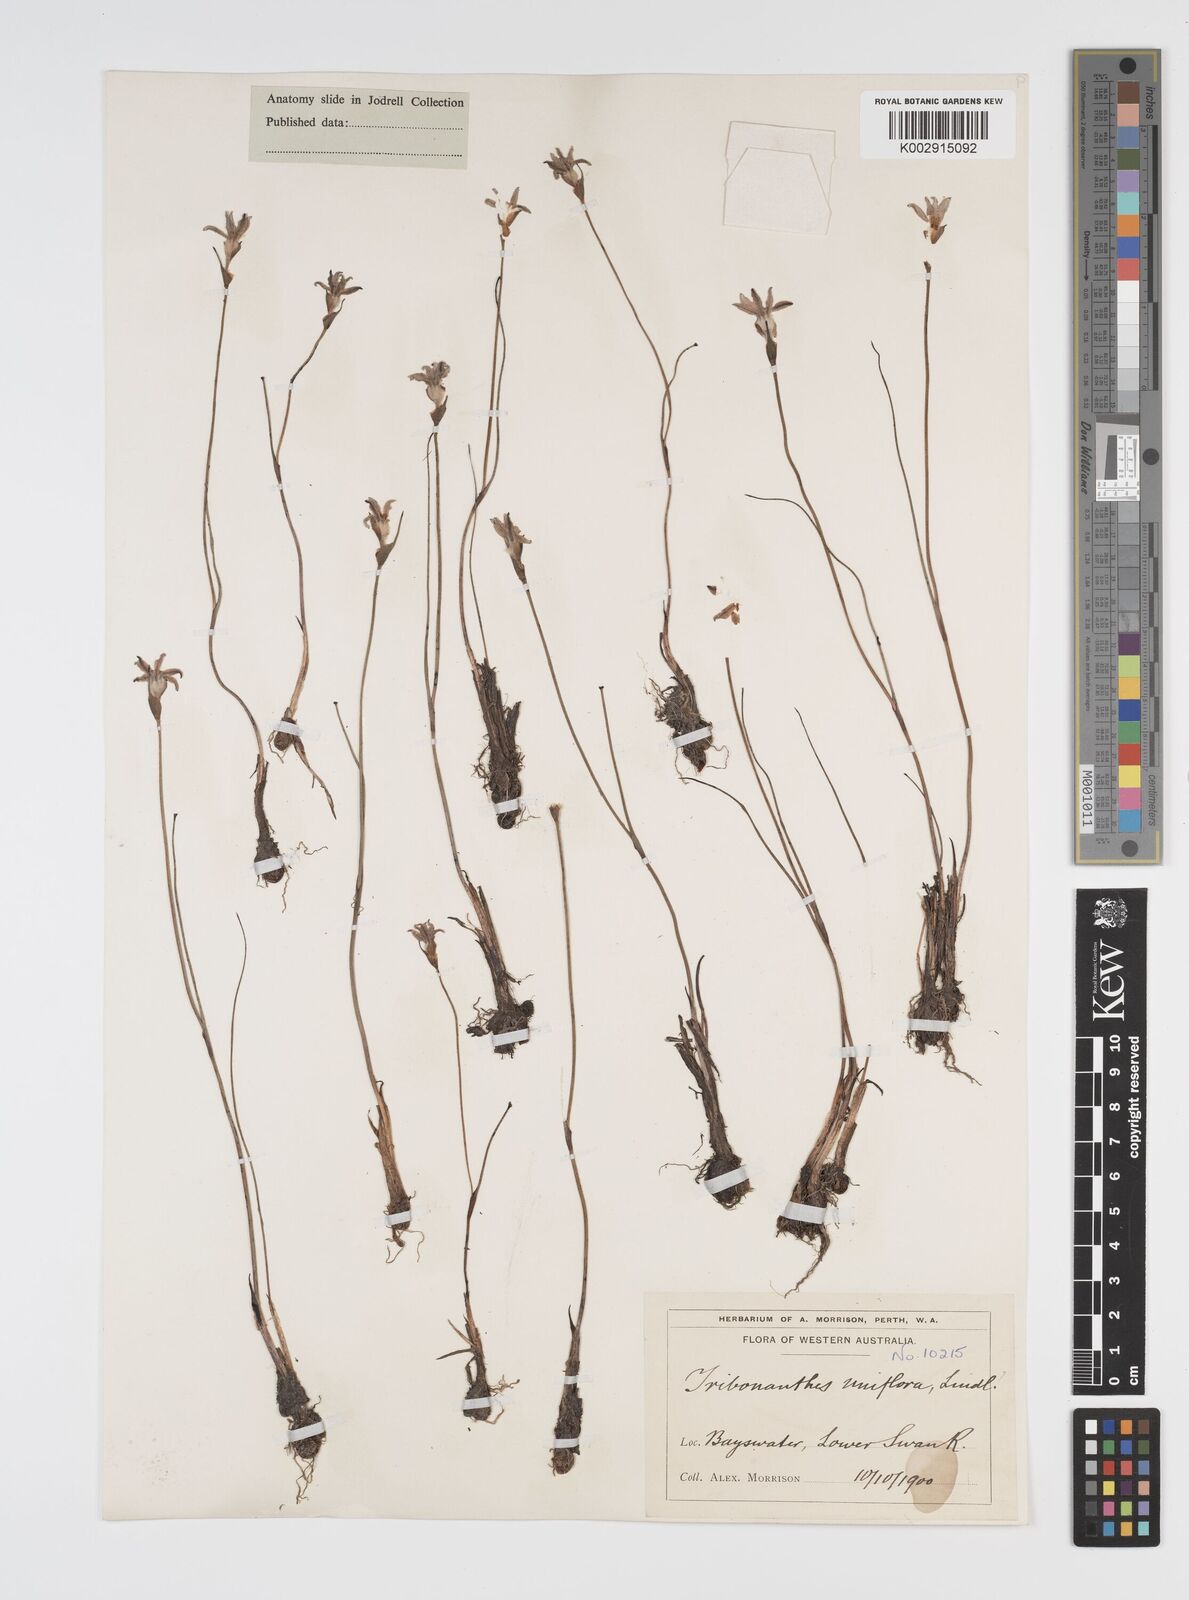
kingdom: Plantae
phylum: Tracheophyta
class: Liliopsida
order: Commelinales
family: Haemodoraceae
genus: Tribonanthes
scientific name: Tribonanthes uniflora
